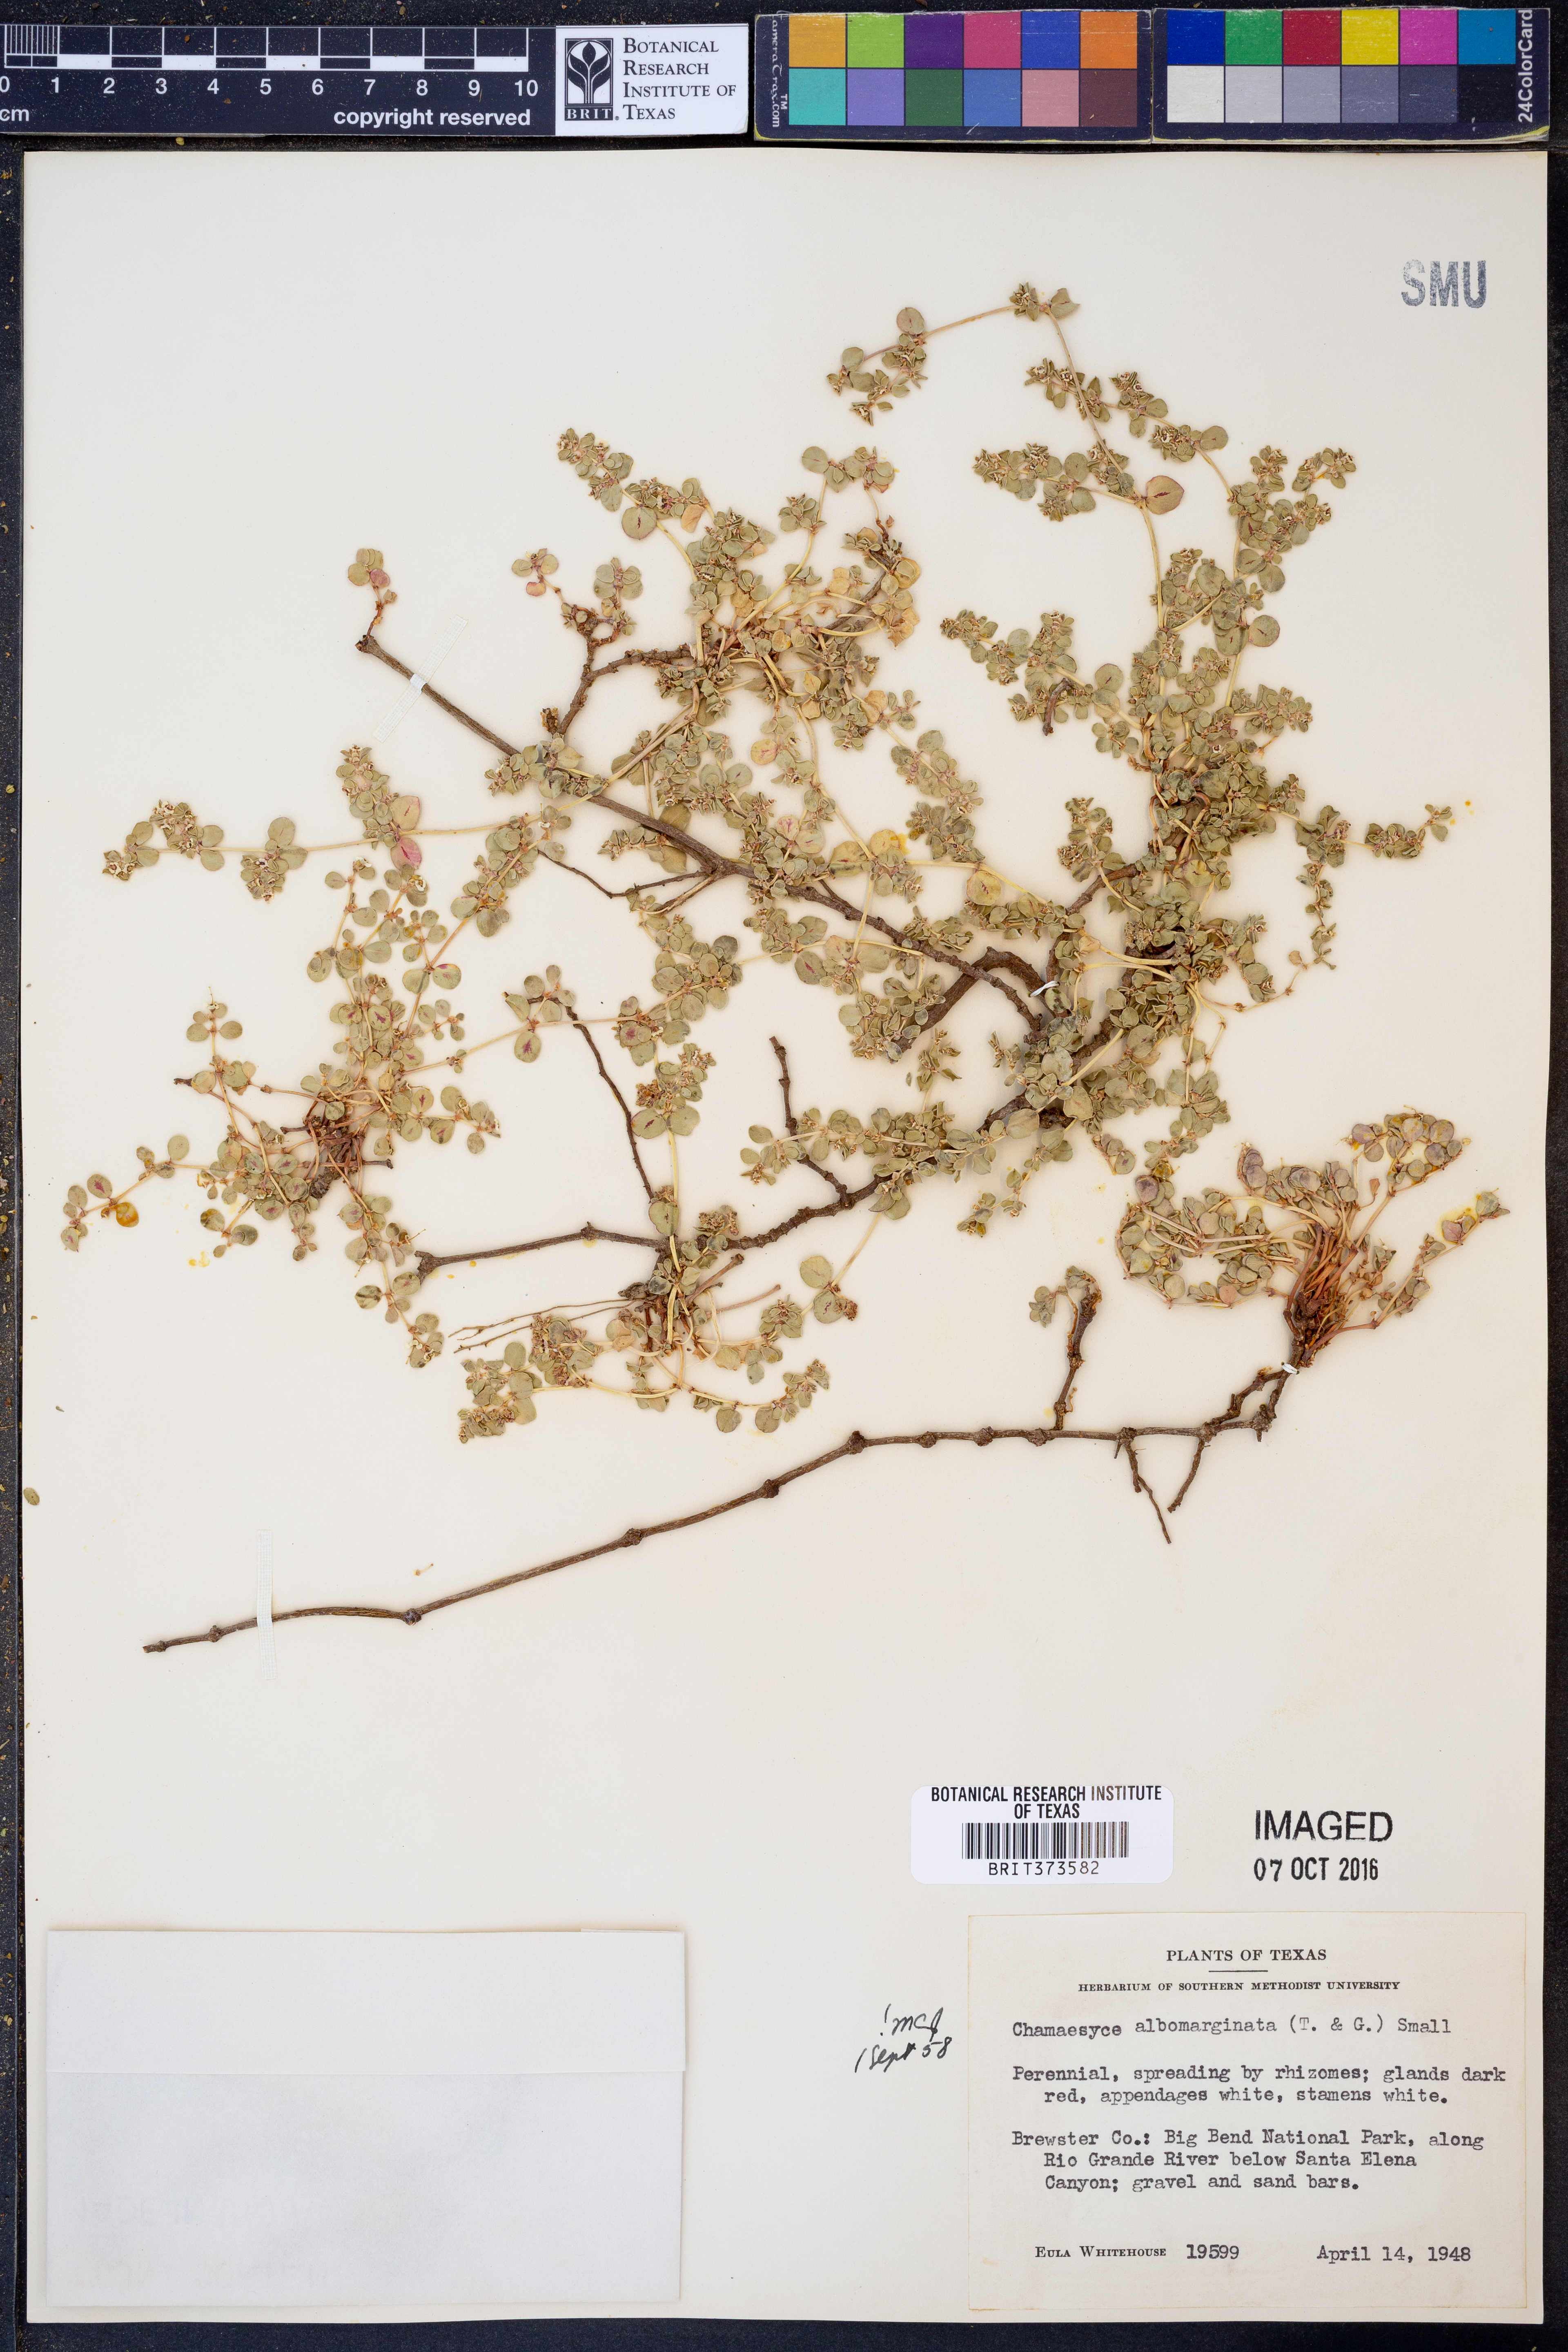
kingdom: Plantae
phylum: Tracheophyta
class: Magnoliopsida
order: Malpighiales
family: Euphorbiaceae
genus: Euphorbia
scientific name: Euphorbia albomarginata
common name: Whitemargin sandmat
